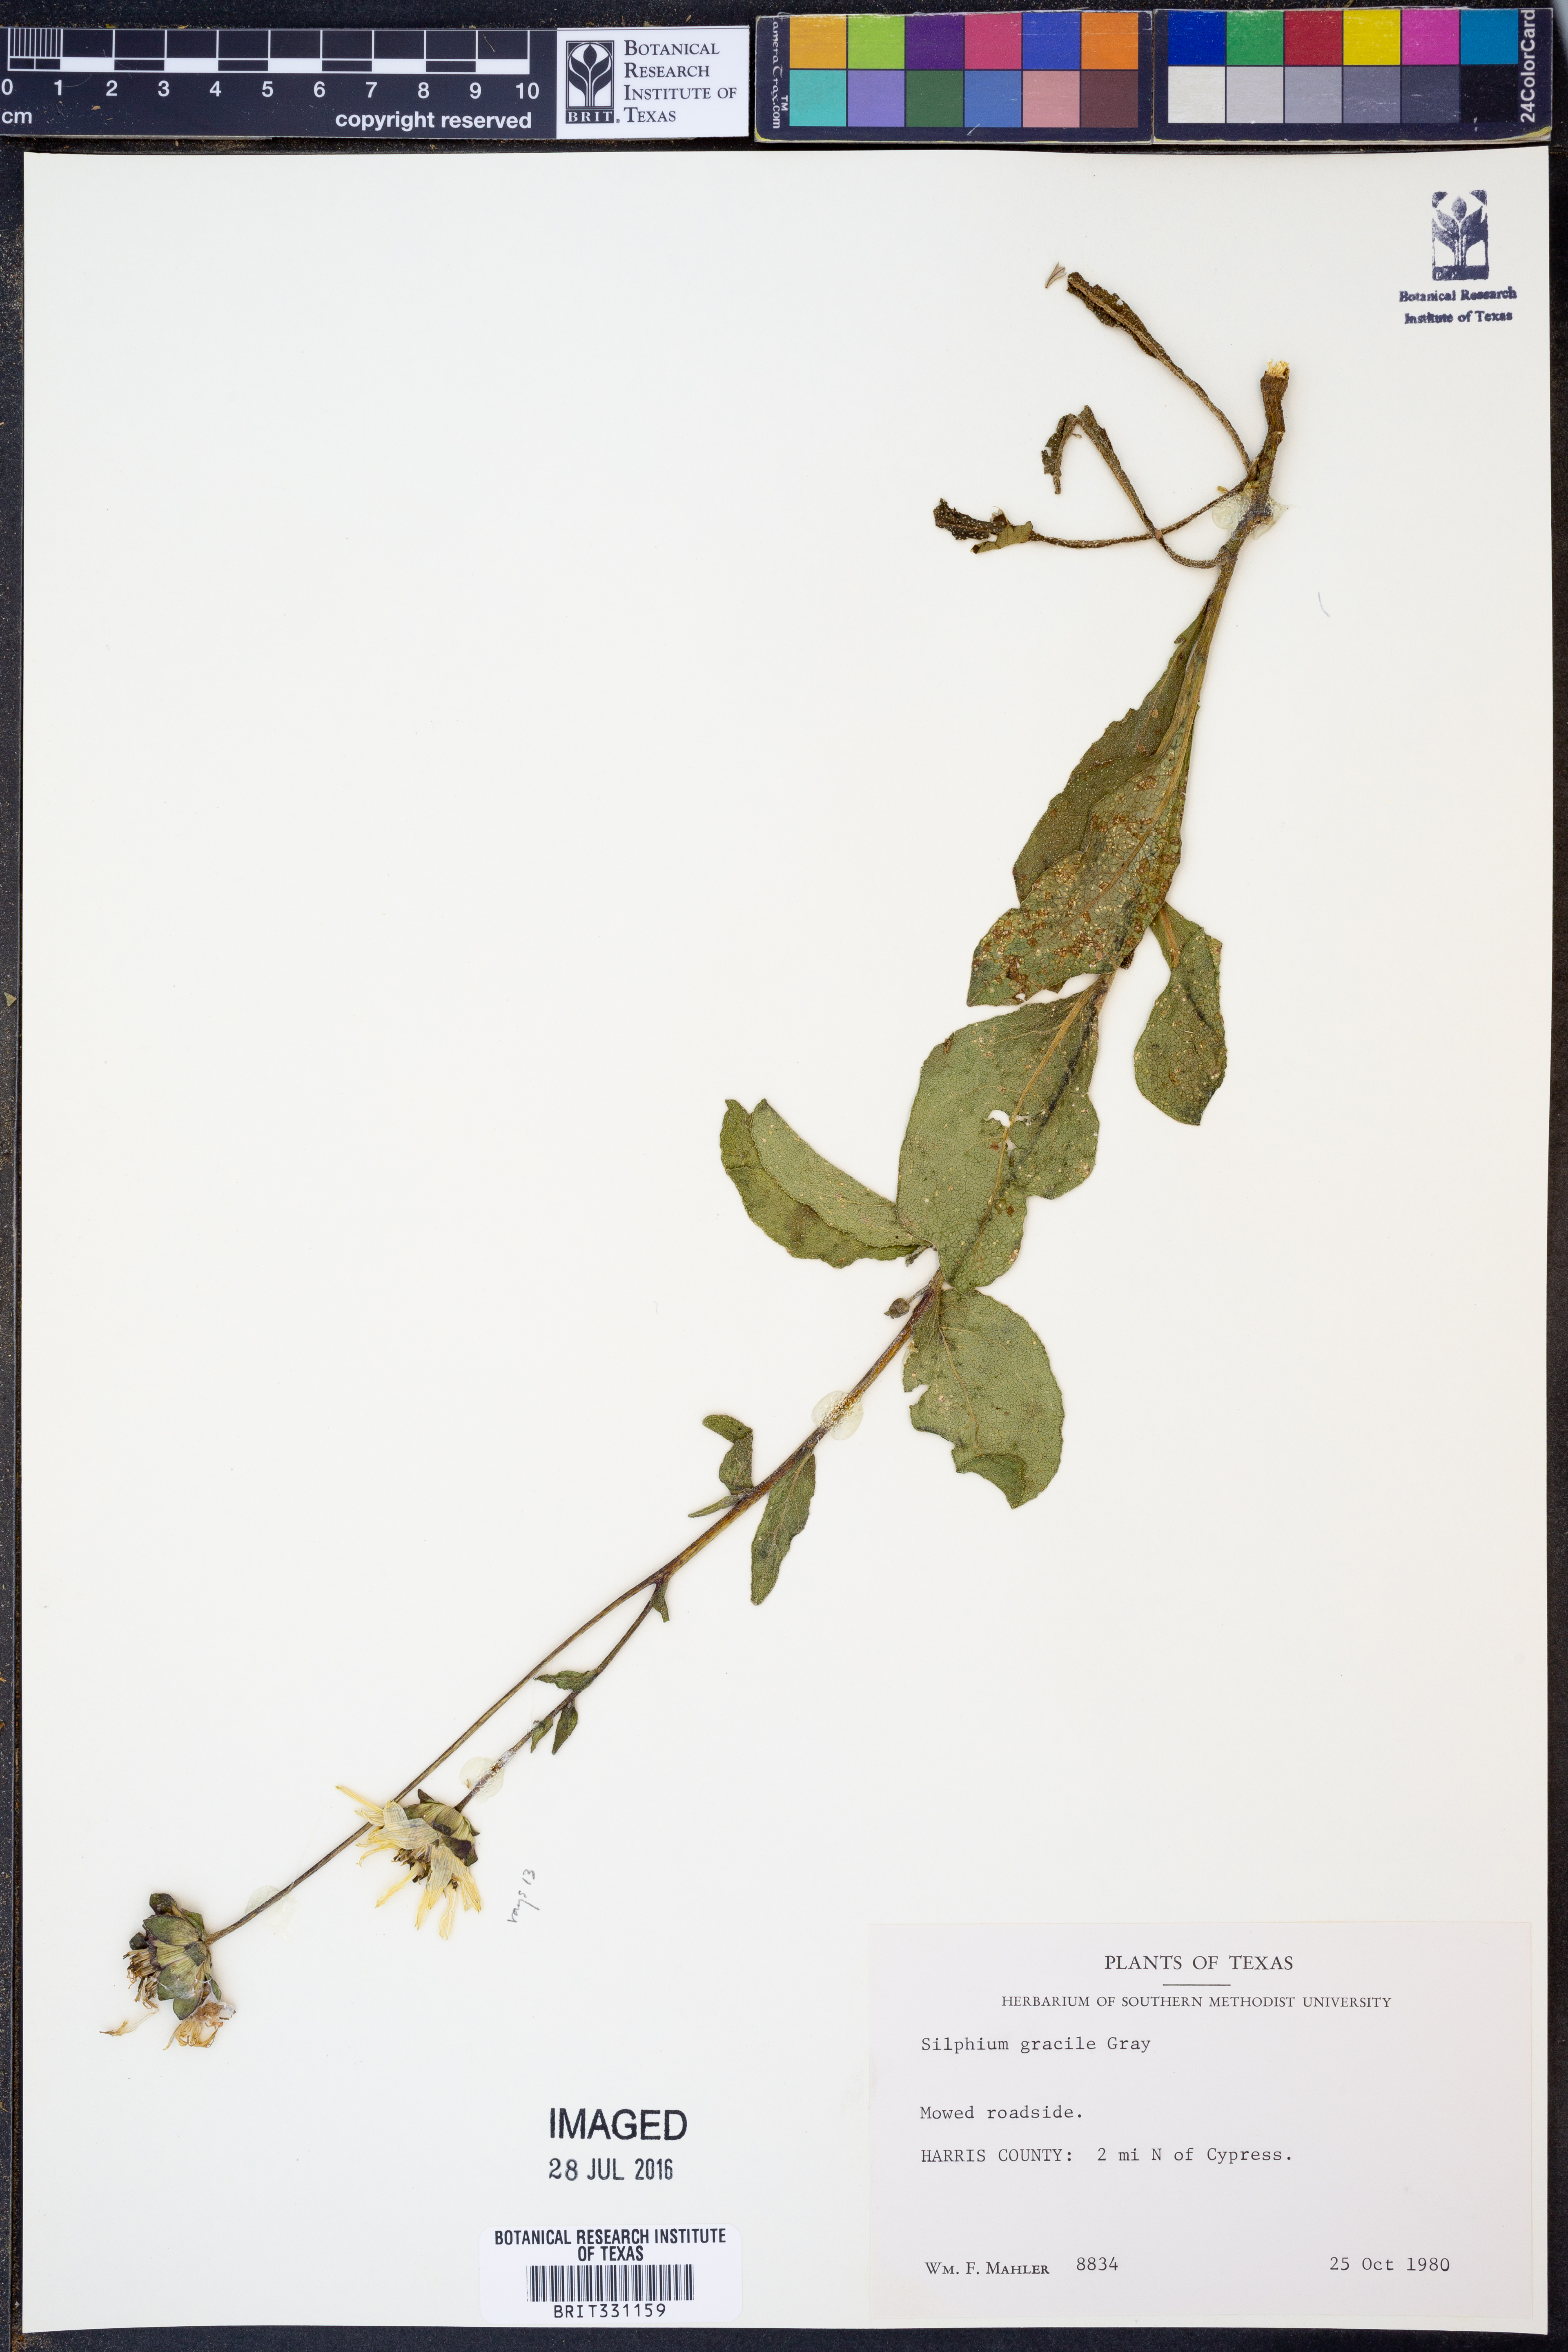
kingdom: Plantae
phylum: Tracheophyta
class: Magnoliopsida
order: Asterales
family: Asteraceae
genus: Silphium
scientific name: Silphium radula
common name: Roughleaf rosinweed
